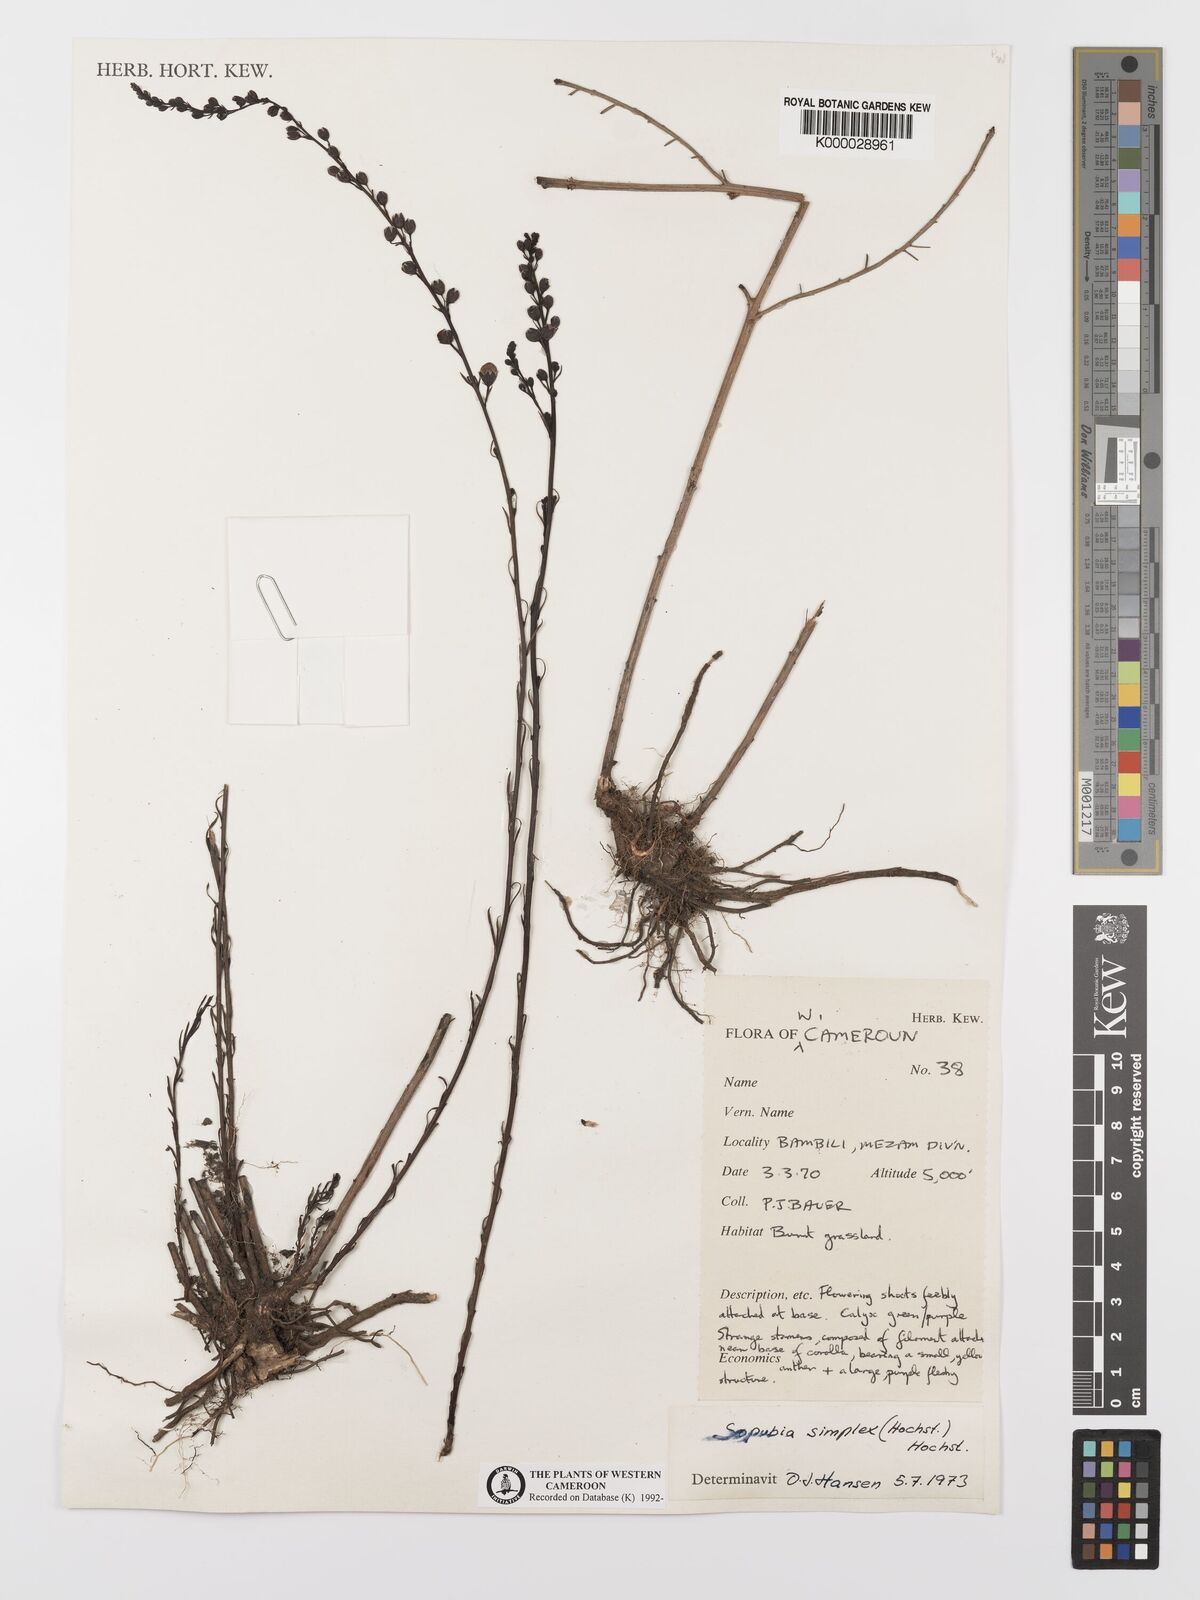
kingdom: Plantae
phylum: Tracheophyta
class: Magnoliopsida
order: Lamiales
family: Orobanchaceae
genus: Sopubia
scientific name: Sopubia simplex
